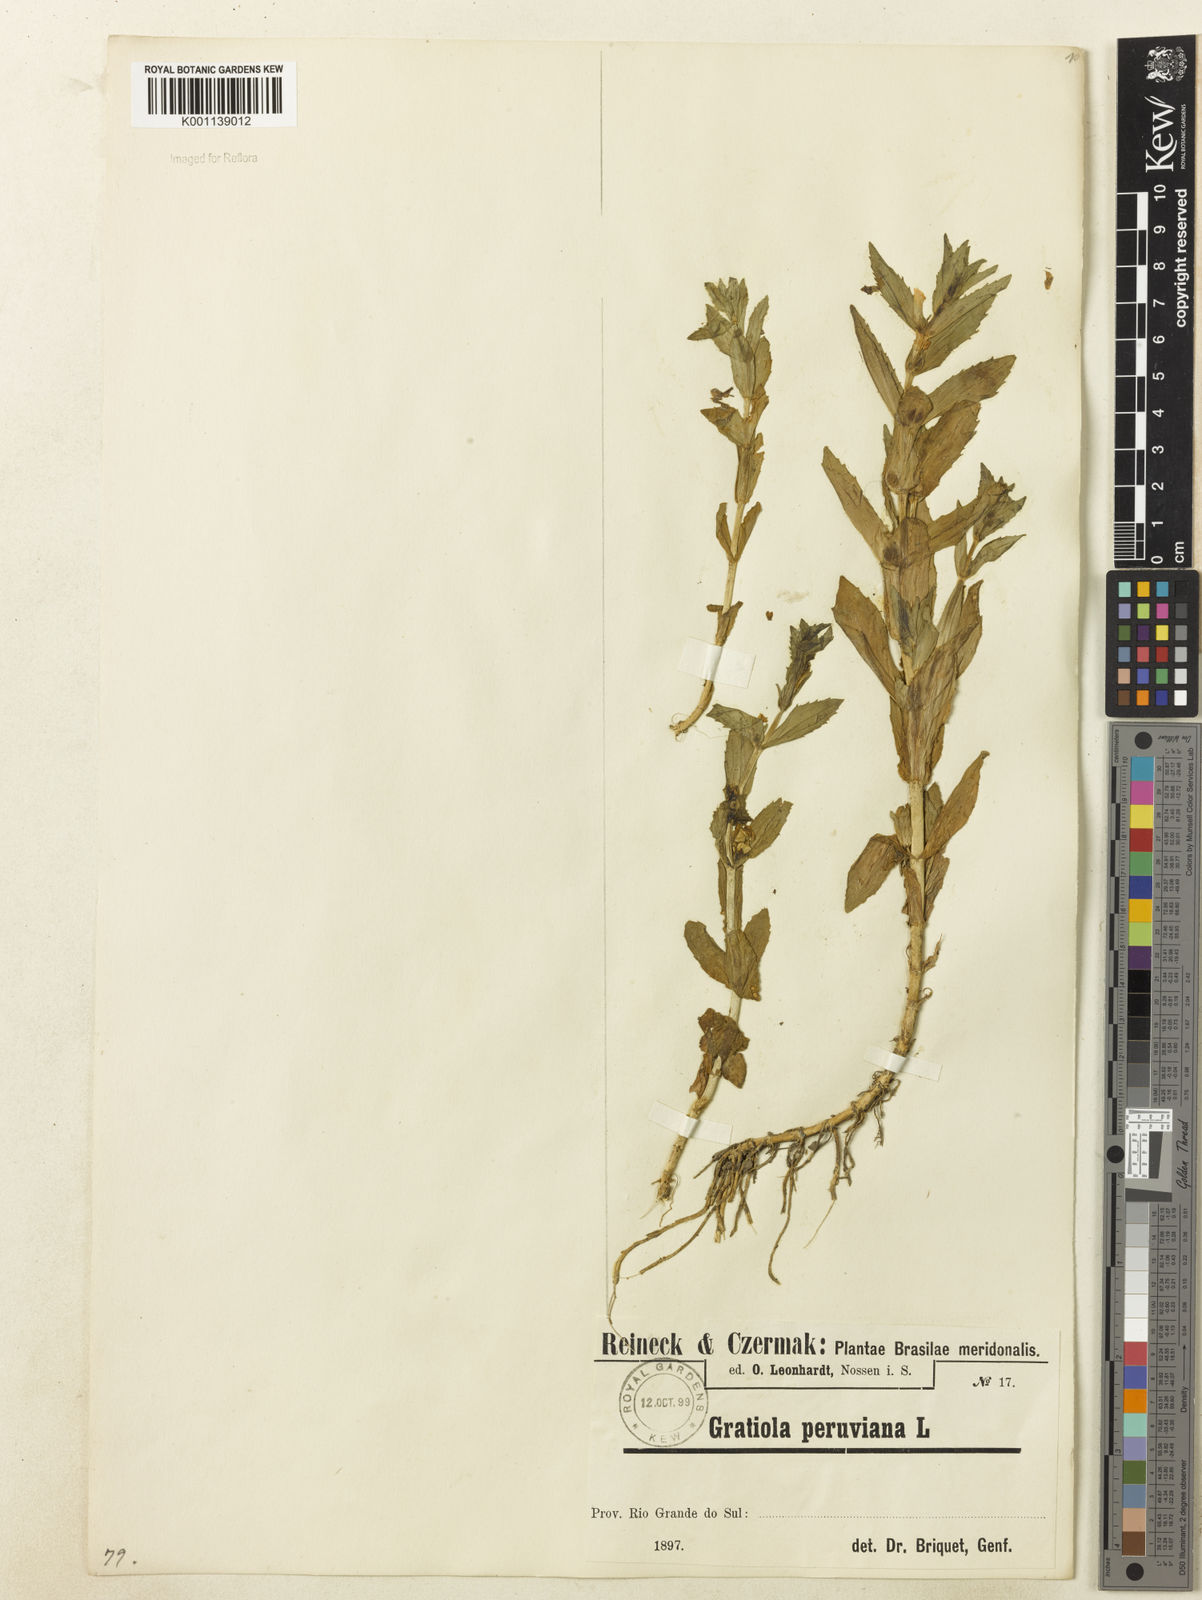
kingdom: Plantae
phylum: Tracheophyta
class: Magnoliopsida
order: Lamiales
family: Plantaginaceae
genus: Gratiola
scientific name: Gratiola peruviana
